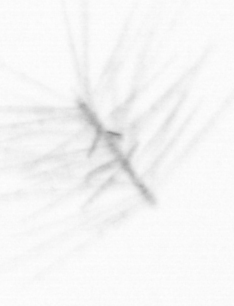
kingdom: Chromista
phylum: Ochrophyta
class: Bacillariophyceae
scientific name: Bacillariophyceae
